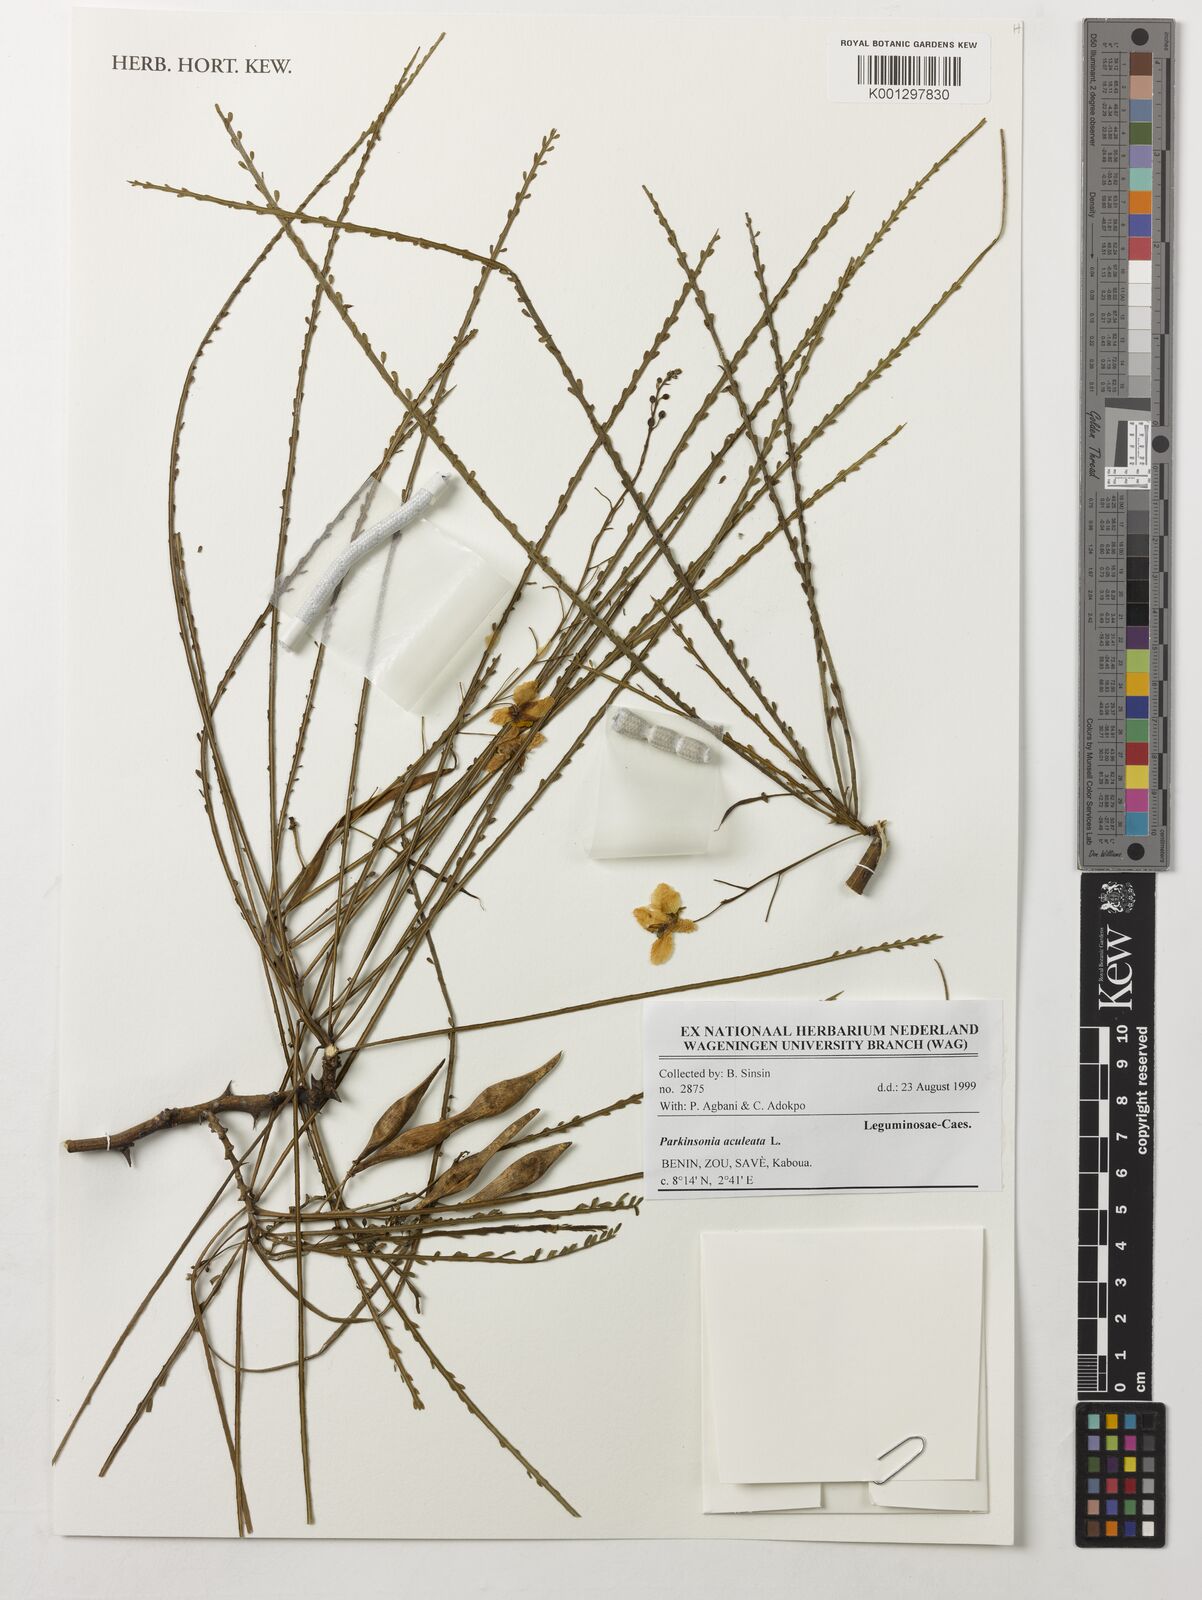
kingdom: Plantae
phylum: Tracheophyta
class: Magnoliopsida
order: Fabales
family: Fabaceae
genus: Parkinsonia
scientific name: Parkinsonia aculeata
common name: Jerusalem thorn
